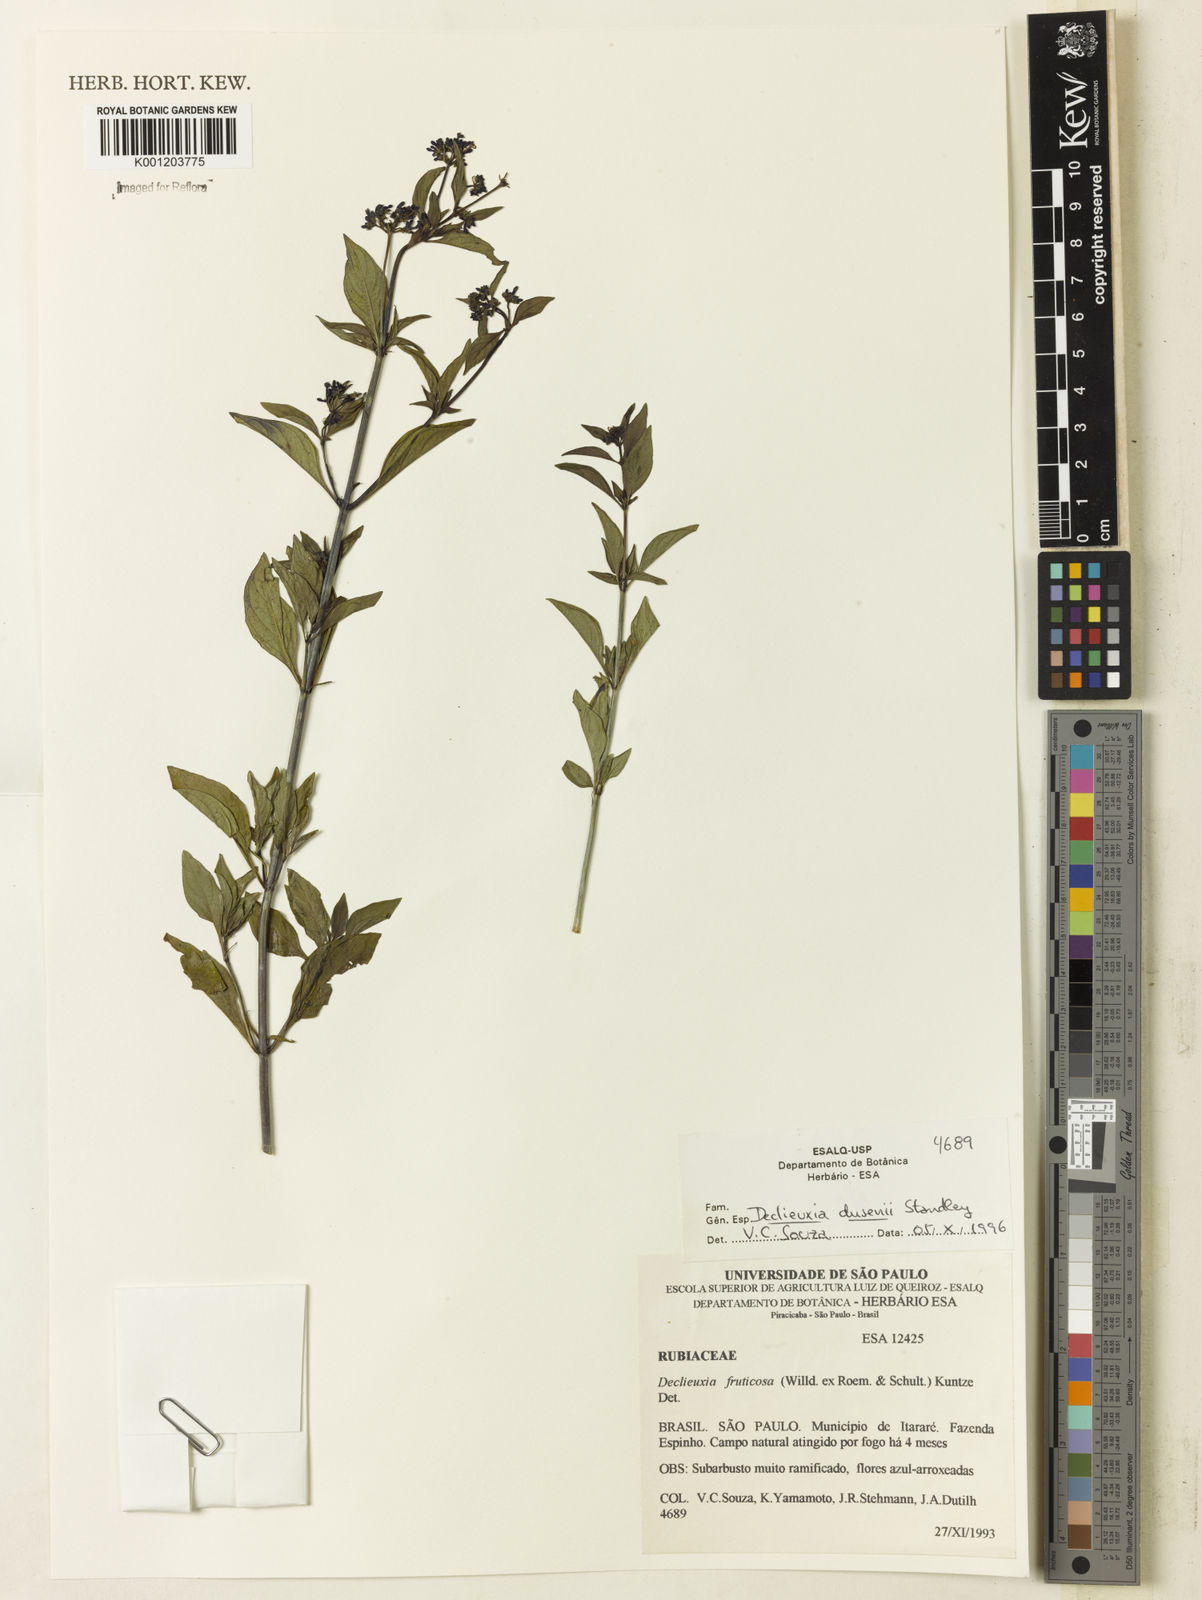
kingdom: Plantae
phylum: Tracheophyta
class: Magnoliopsida
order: Gentianales
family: Rubiaceae
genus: Declieuxia
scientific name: Declieuxia dusenii
